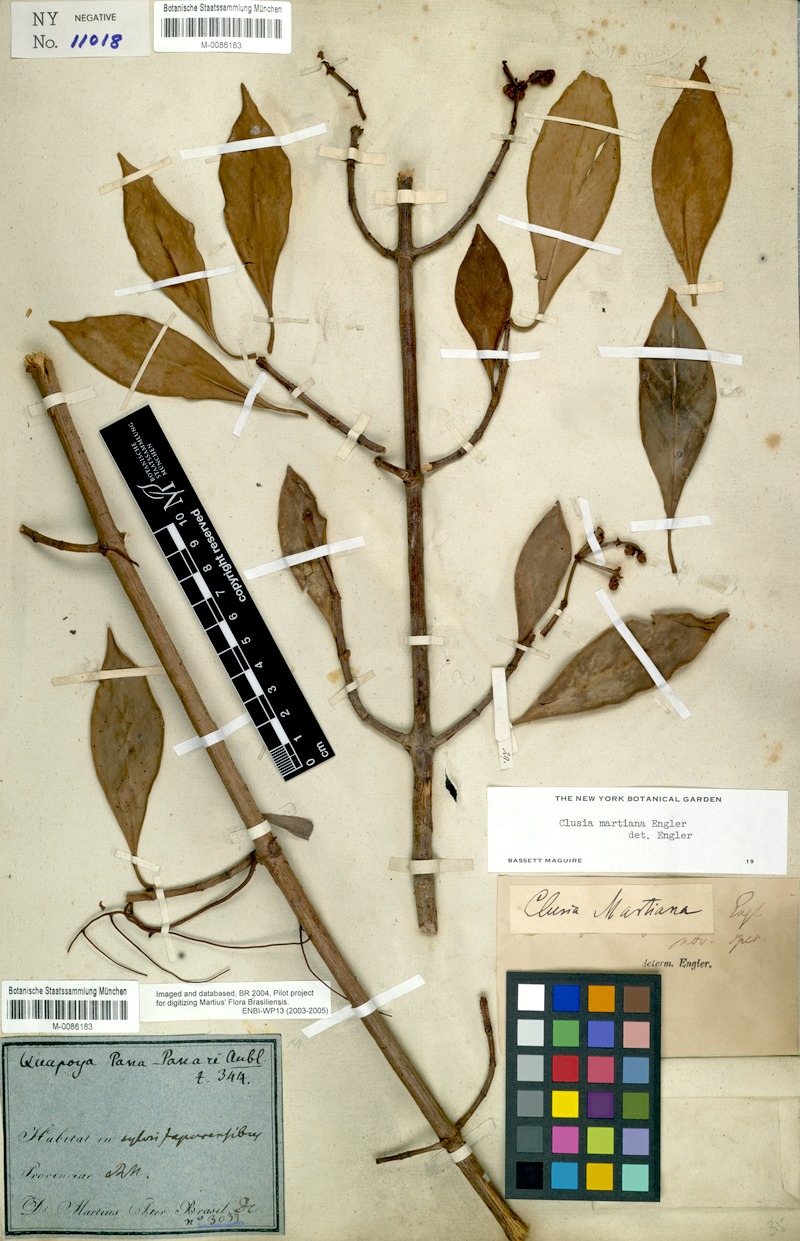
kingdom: Plantae
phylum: Tracheophyta
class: Magnoliopsida
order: Malpighiales
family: Clusiaceae
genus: Clusia
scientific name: Clusia martiana
